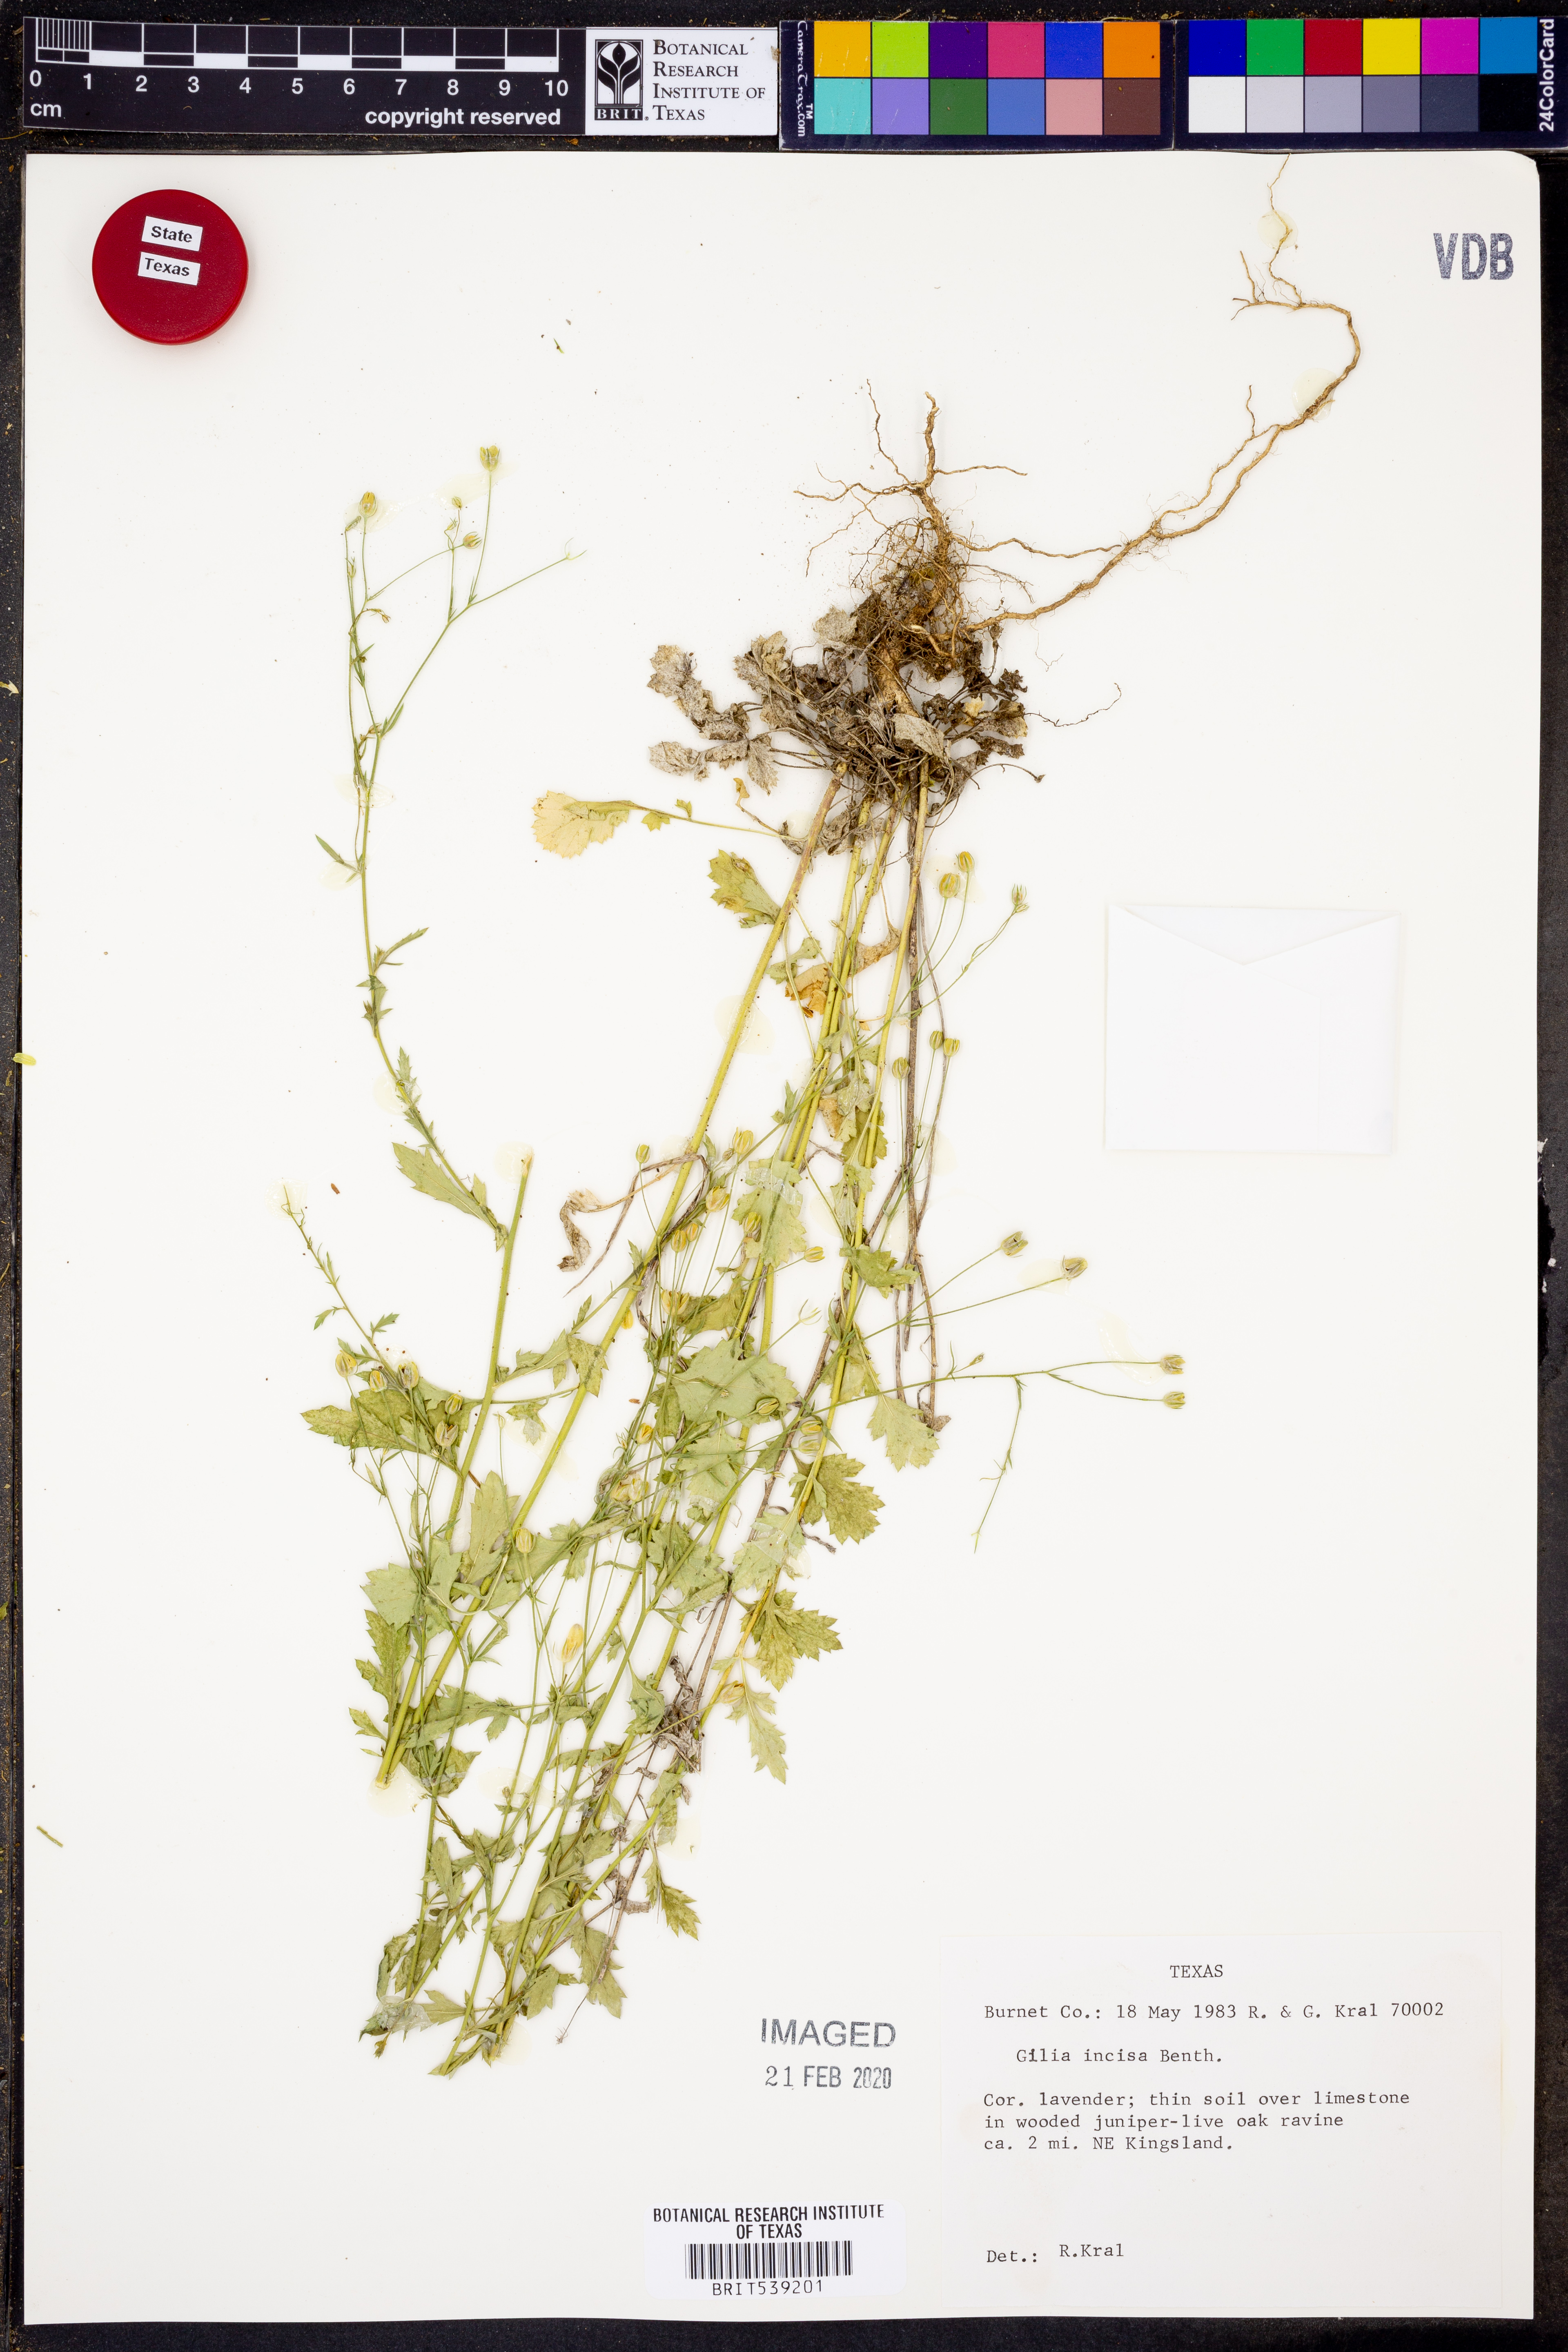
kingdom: Plantae
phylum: Tracheophyta
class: Magnoliopsida
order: Ericales
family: Polemoniaceae
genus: Giliastrum
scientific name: Giliastrum incisum
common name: Splitleaf gilia
